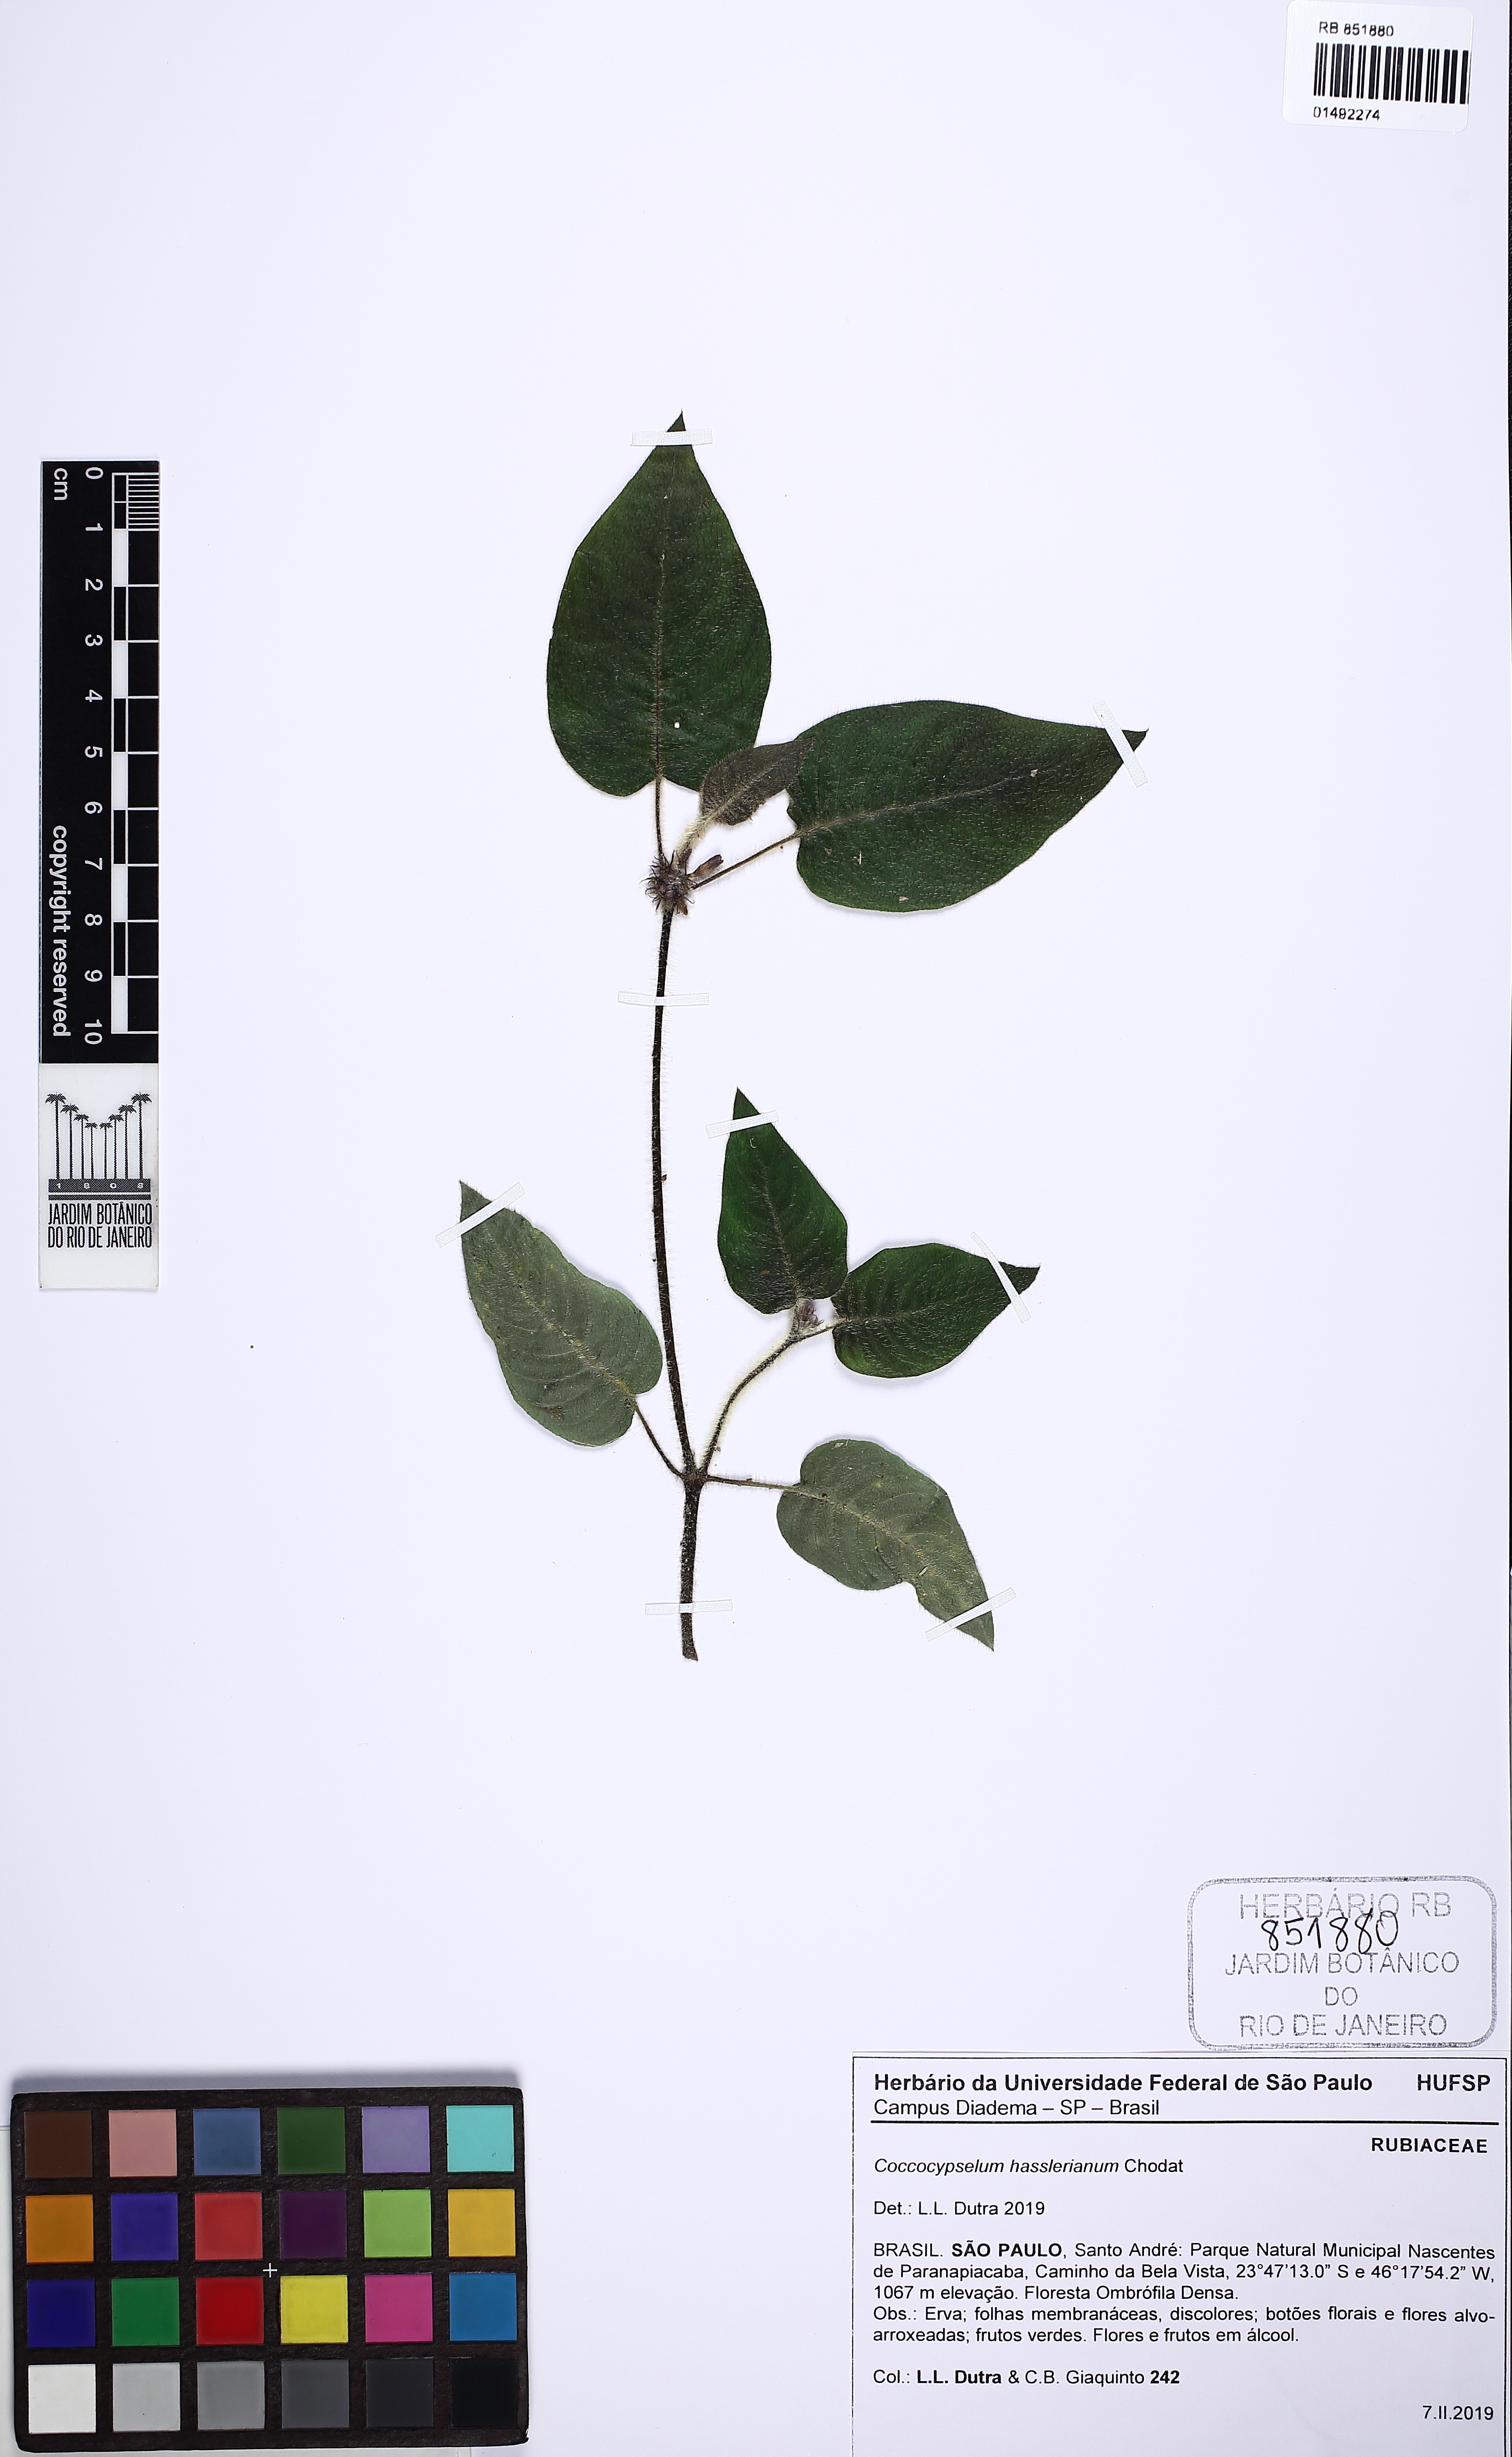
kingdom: Plantae
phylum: Tracheophyta
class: Magnoliopsida
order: Gentianales
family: Rubiaceae
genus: Coccocypselum
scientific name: Coccocypselum hasslerianum
